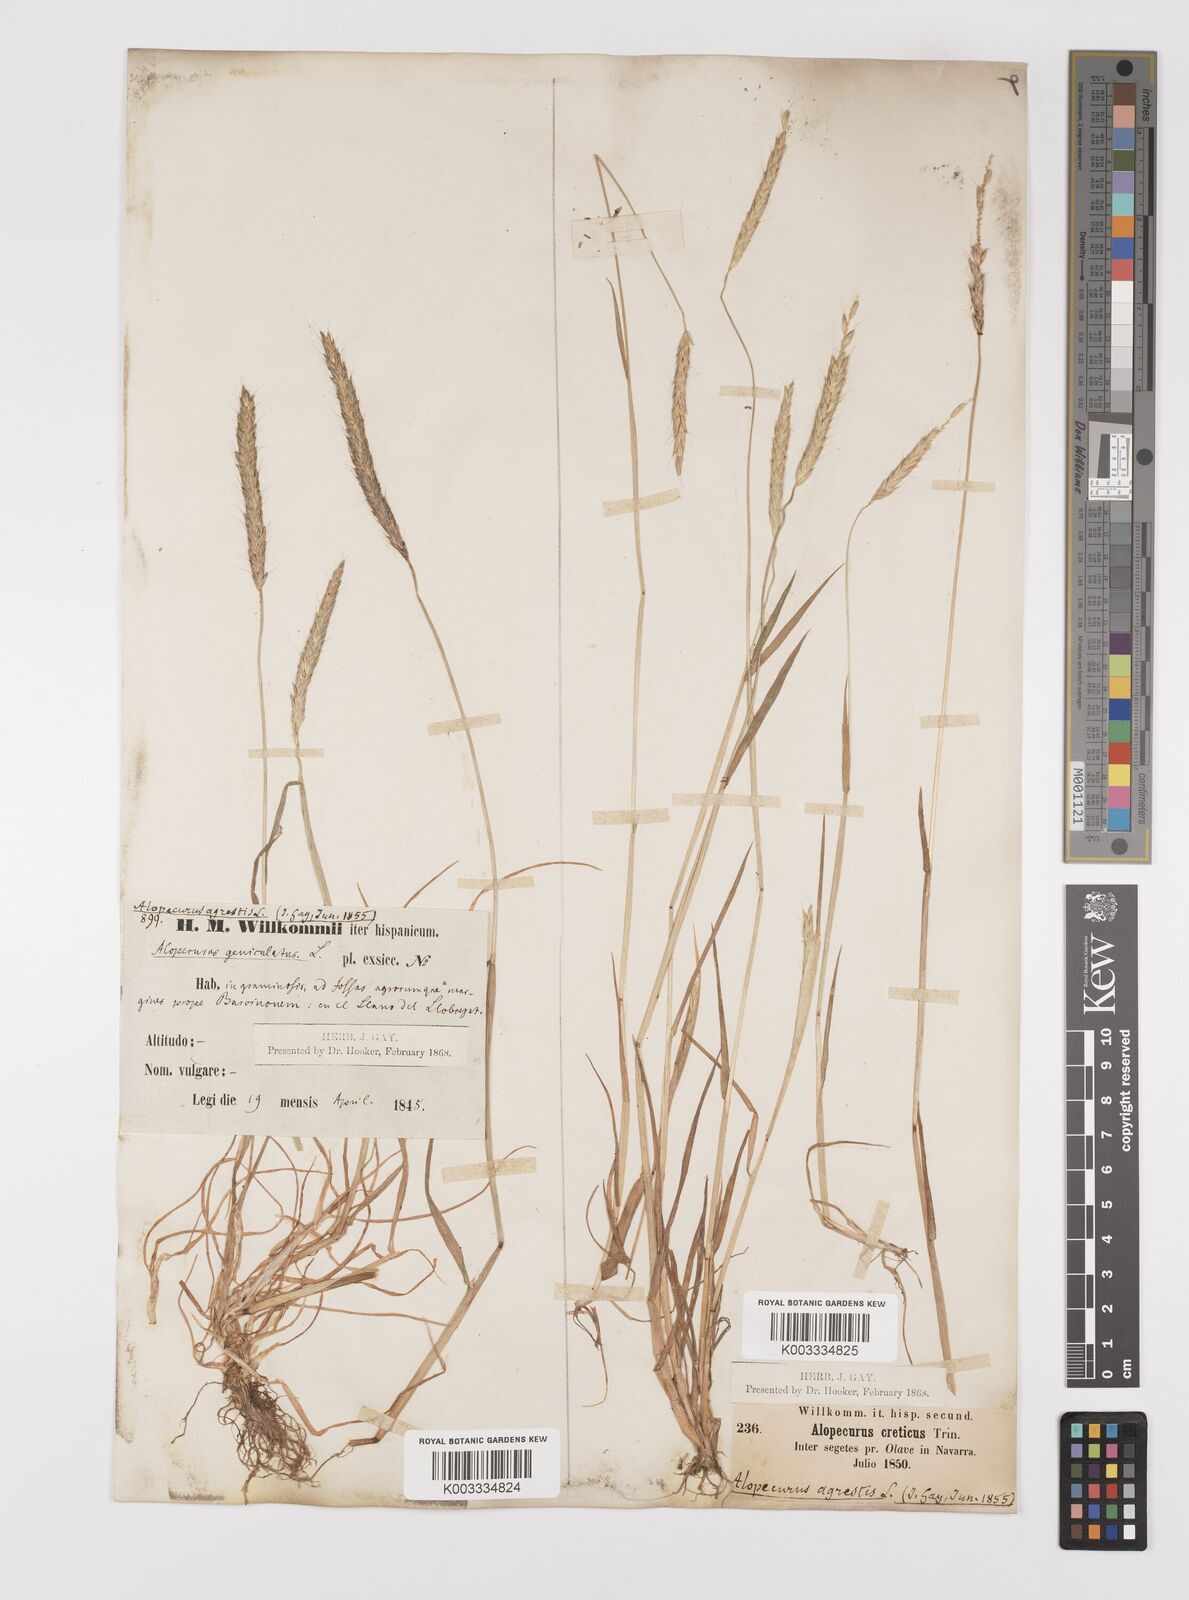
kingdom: Plantae
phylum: Tracheophyta
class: Liliopsida
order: Poales
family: Poaceae
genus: Alopecurus
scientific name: Alopecurus myosuroides
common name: Black-grass
